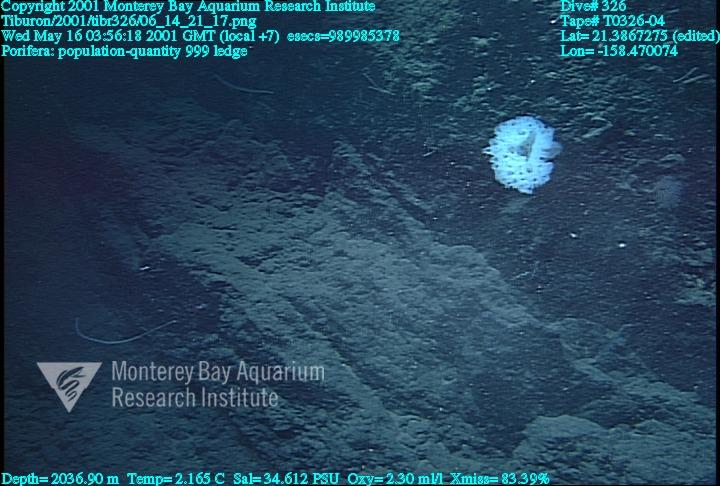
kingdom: Animalia
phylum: Porifera
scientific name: Porifera
